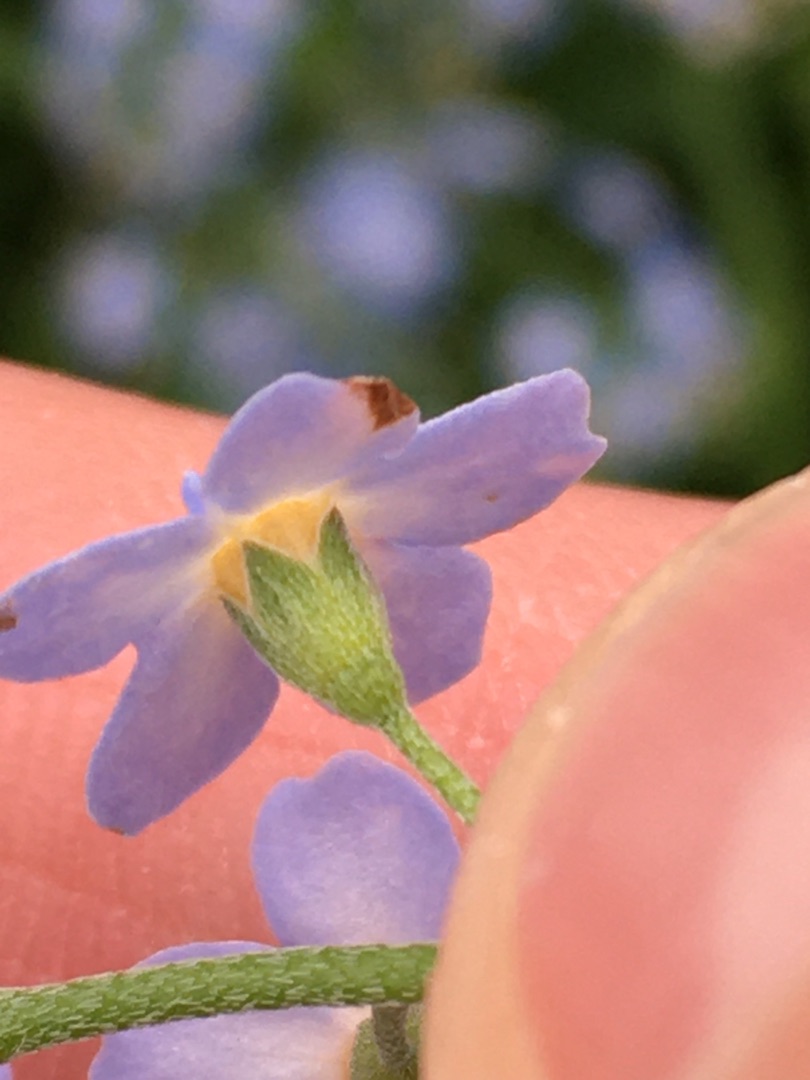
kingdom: Plantae
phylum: Tracheophyta
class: Magnoliopsida
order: Boraginales
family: Boraginaceae
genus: Myosotis
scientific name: Myosotis scorpioides
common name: Eng-forglemmigej
